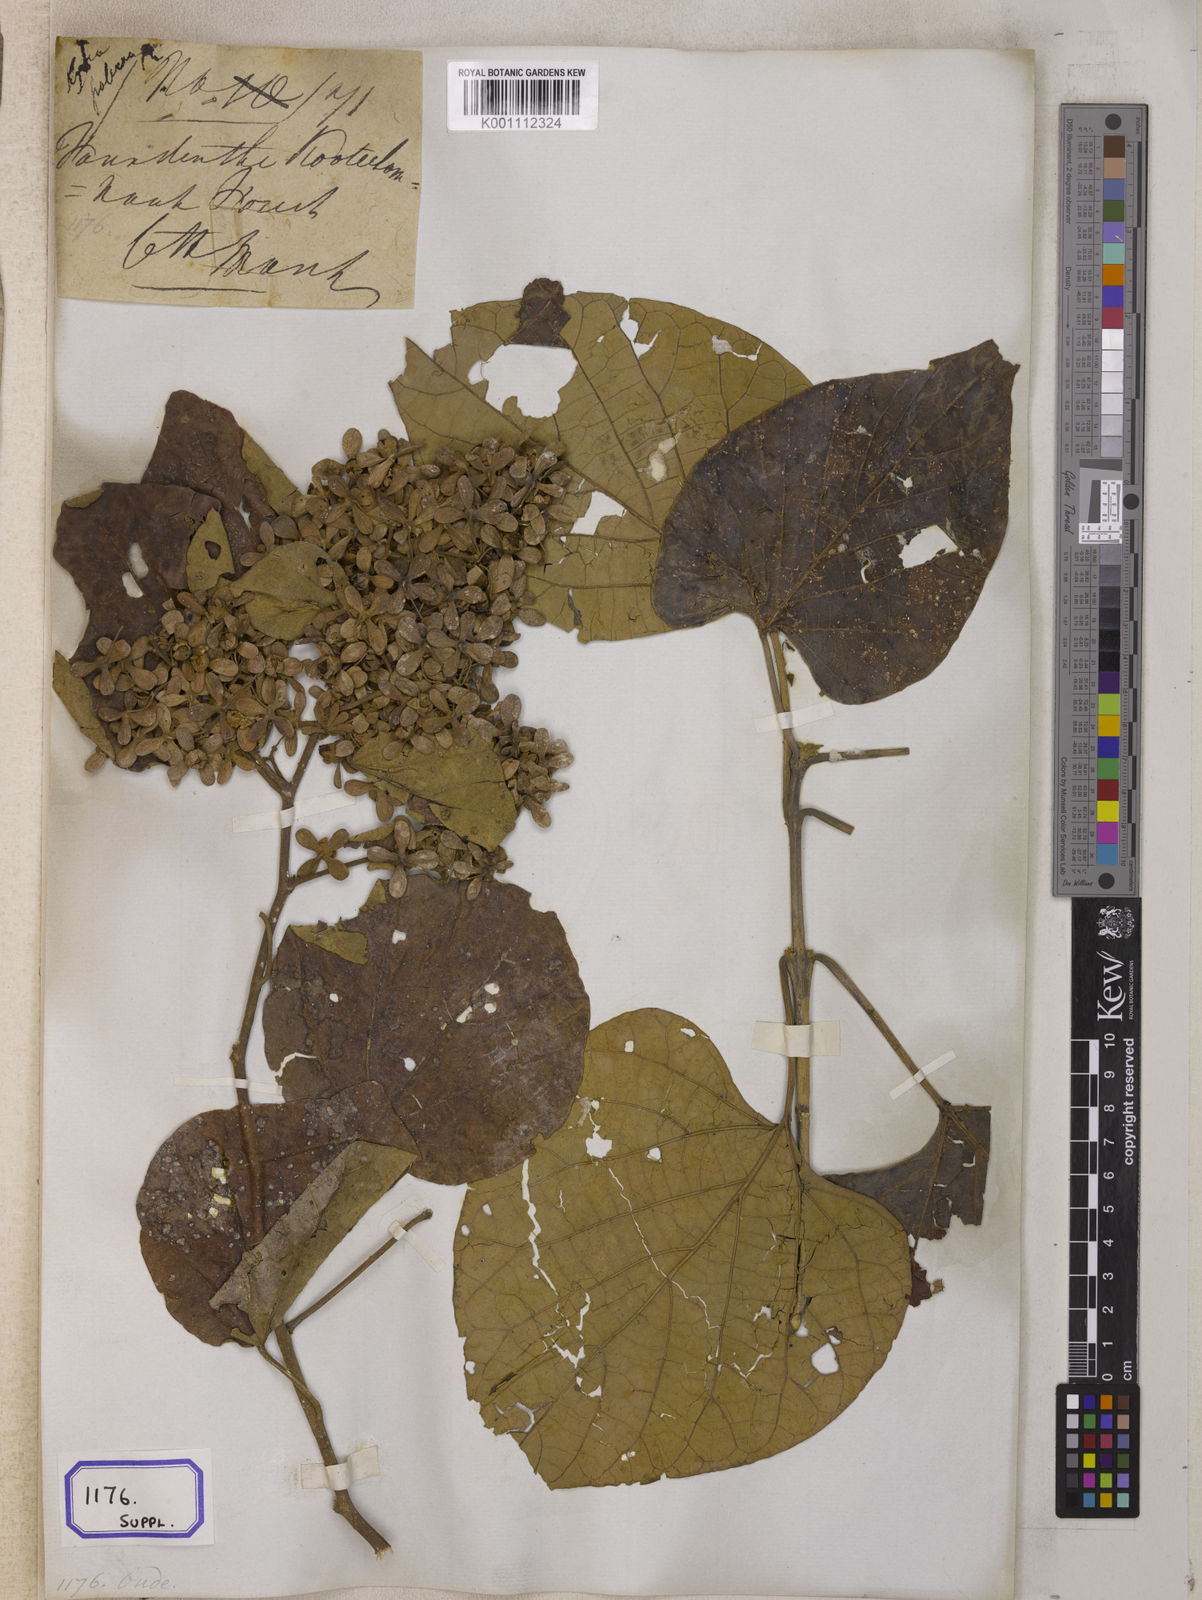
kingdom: Plantae
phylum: Tracheophyta
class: Magnoliopsida
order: Malvales
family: Malvaceae
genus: Kydia
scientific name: Kydia calycina
